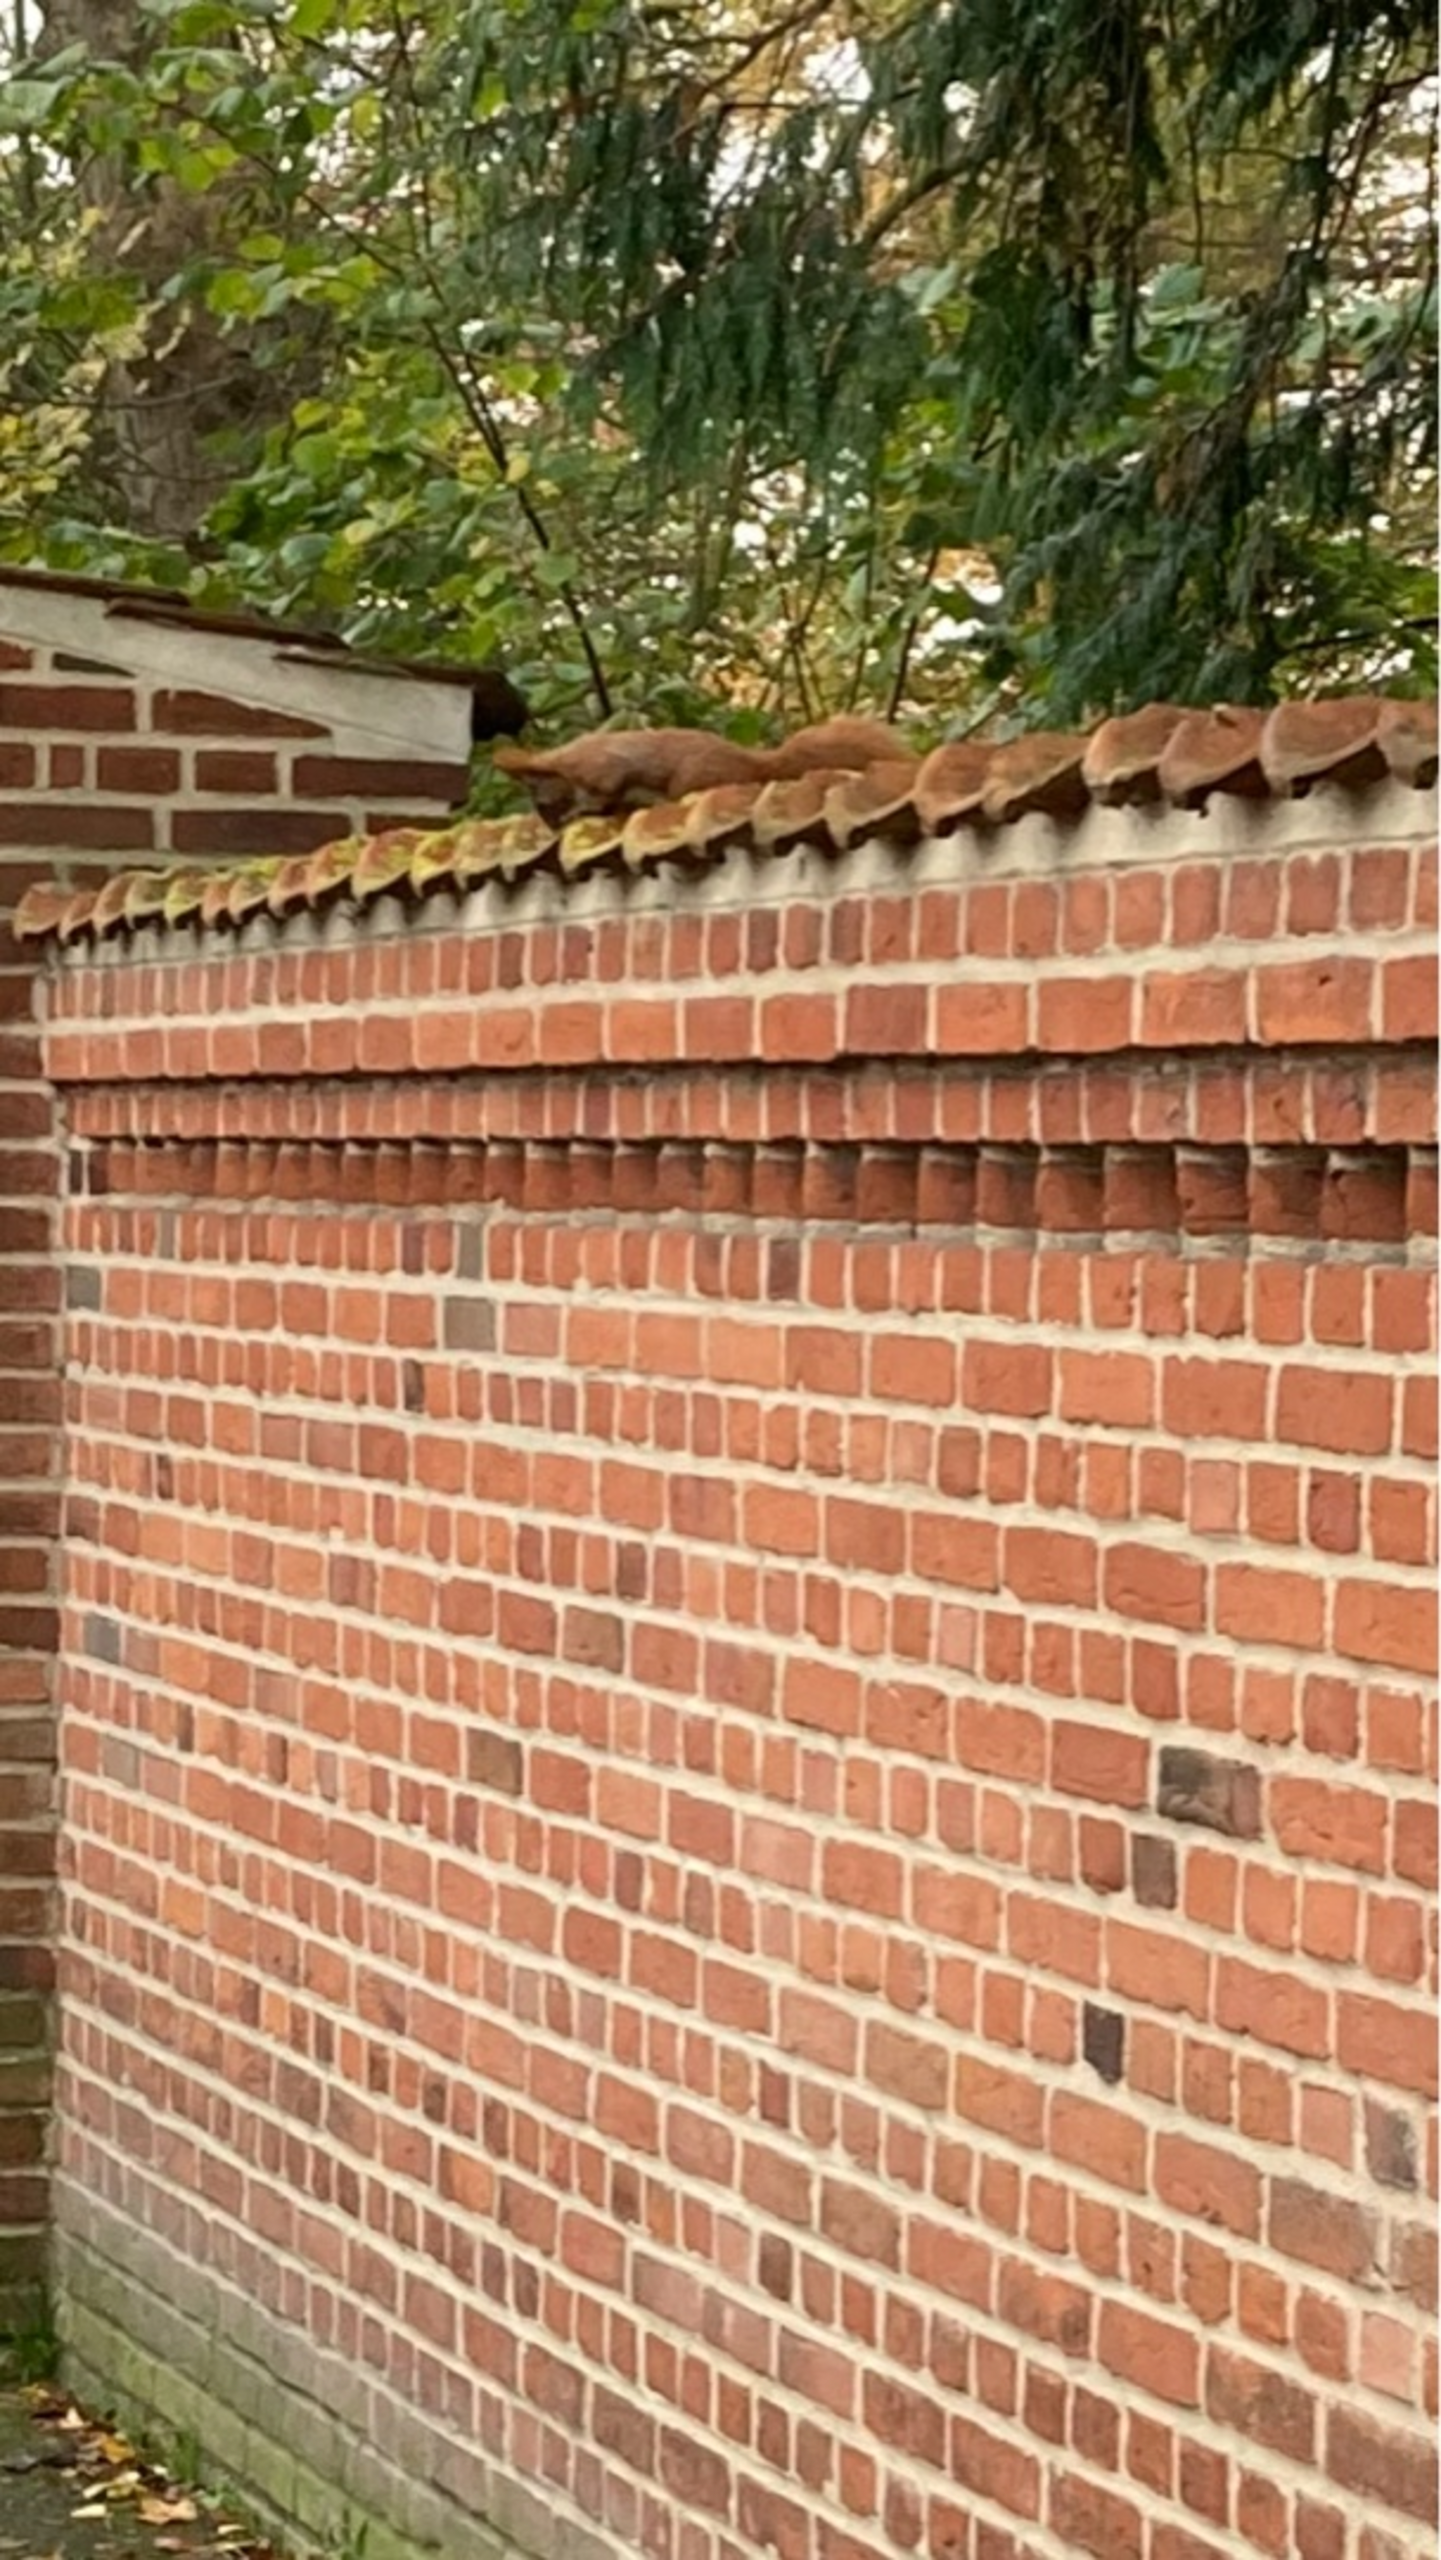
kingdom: Animalia
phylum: Chordata
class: Mammalia
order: Rodentia
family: Sciuridae
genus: Sciurus
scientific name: Sciurus vulgaris
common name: Egern
